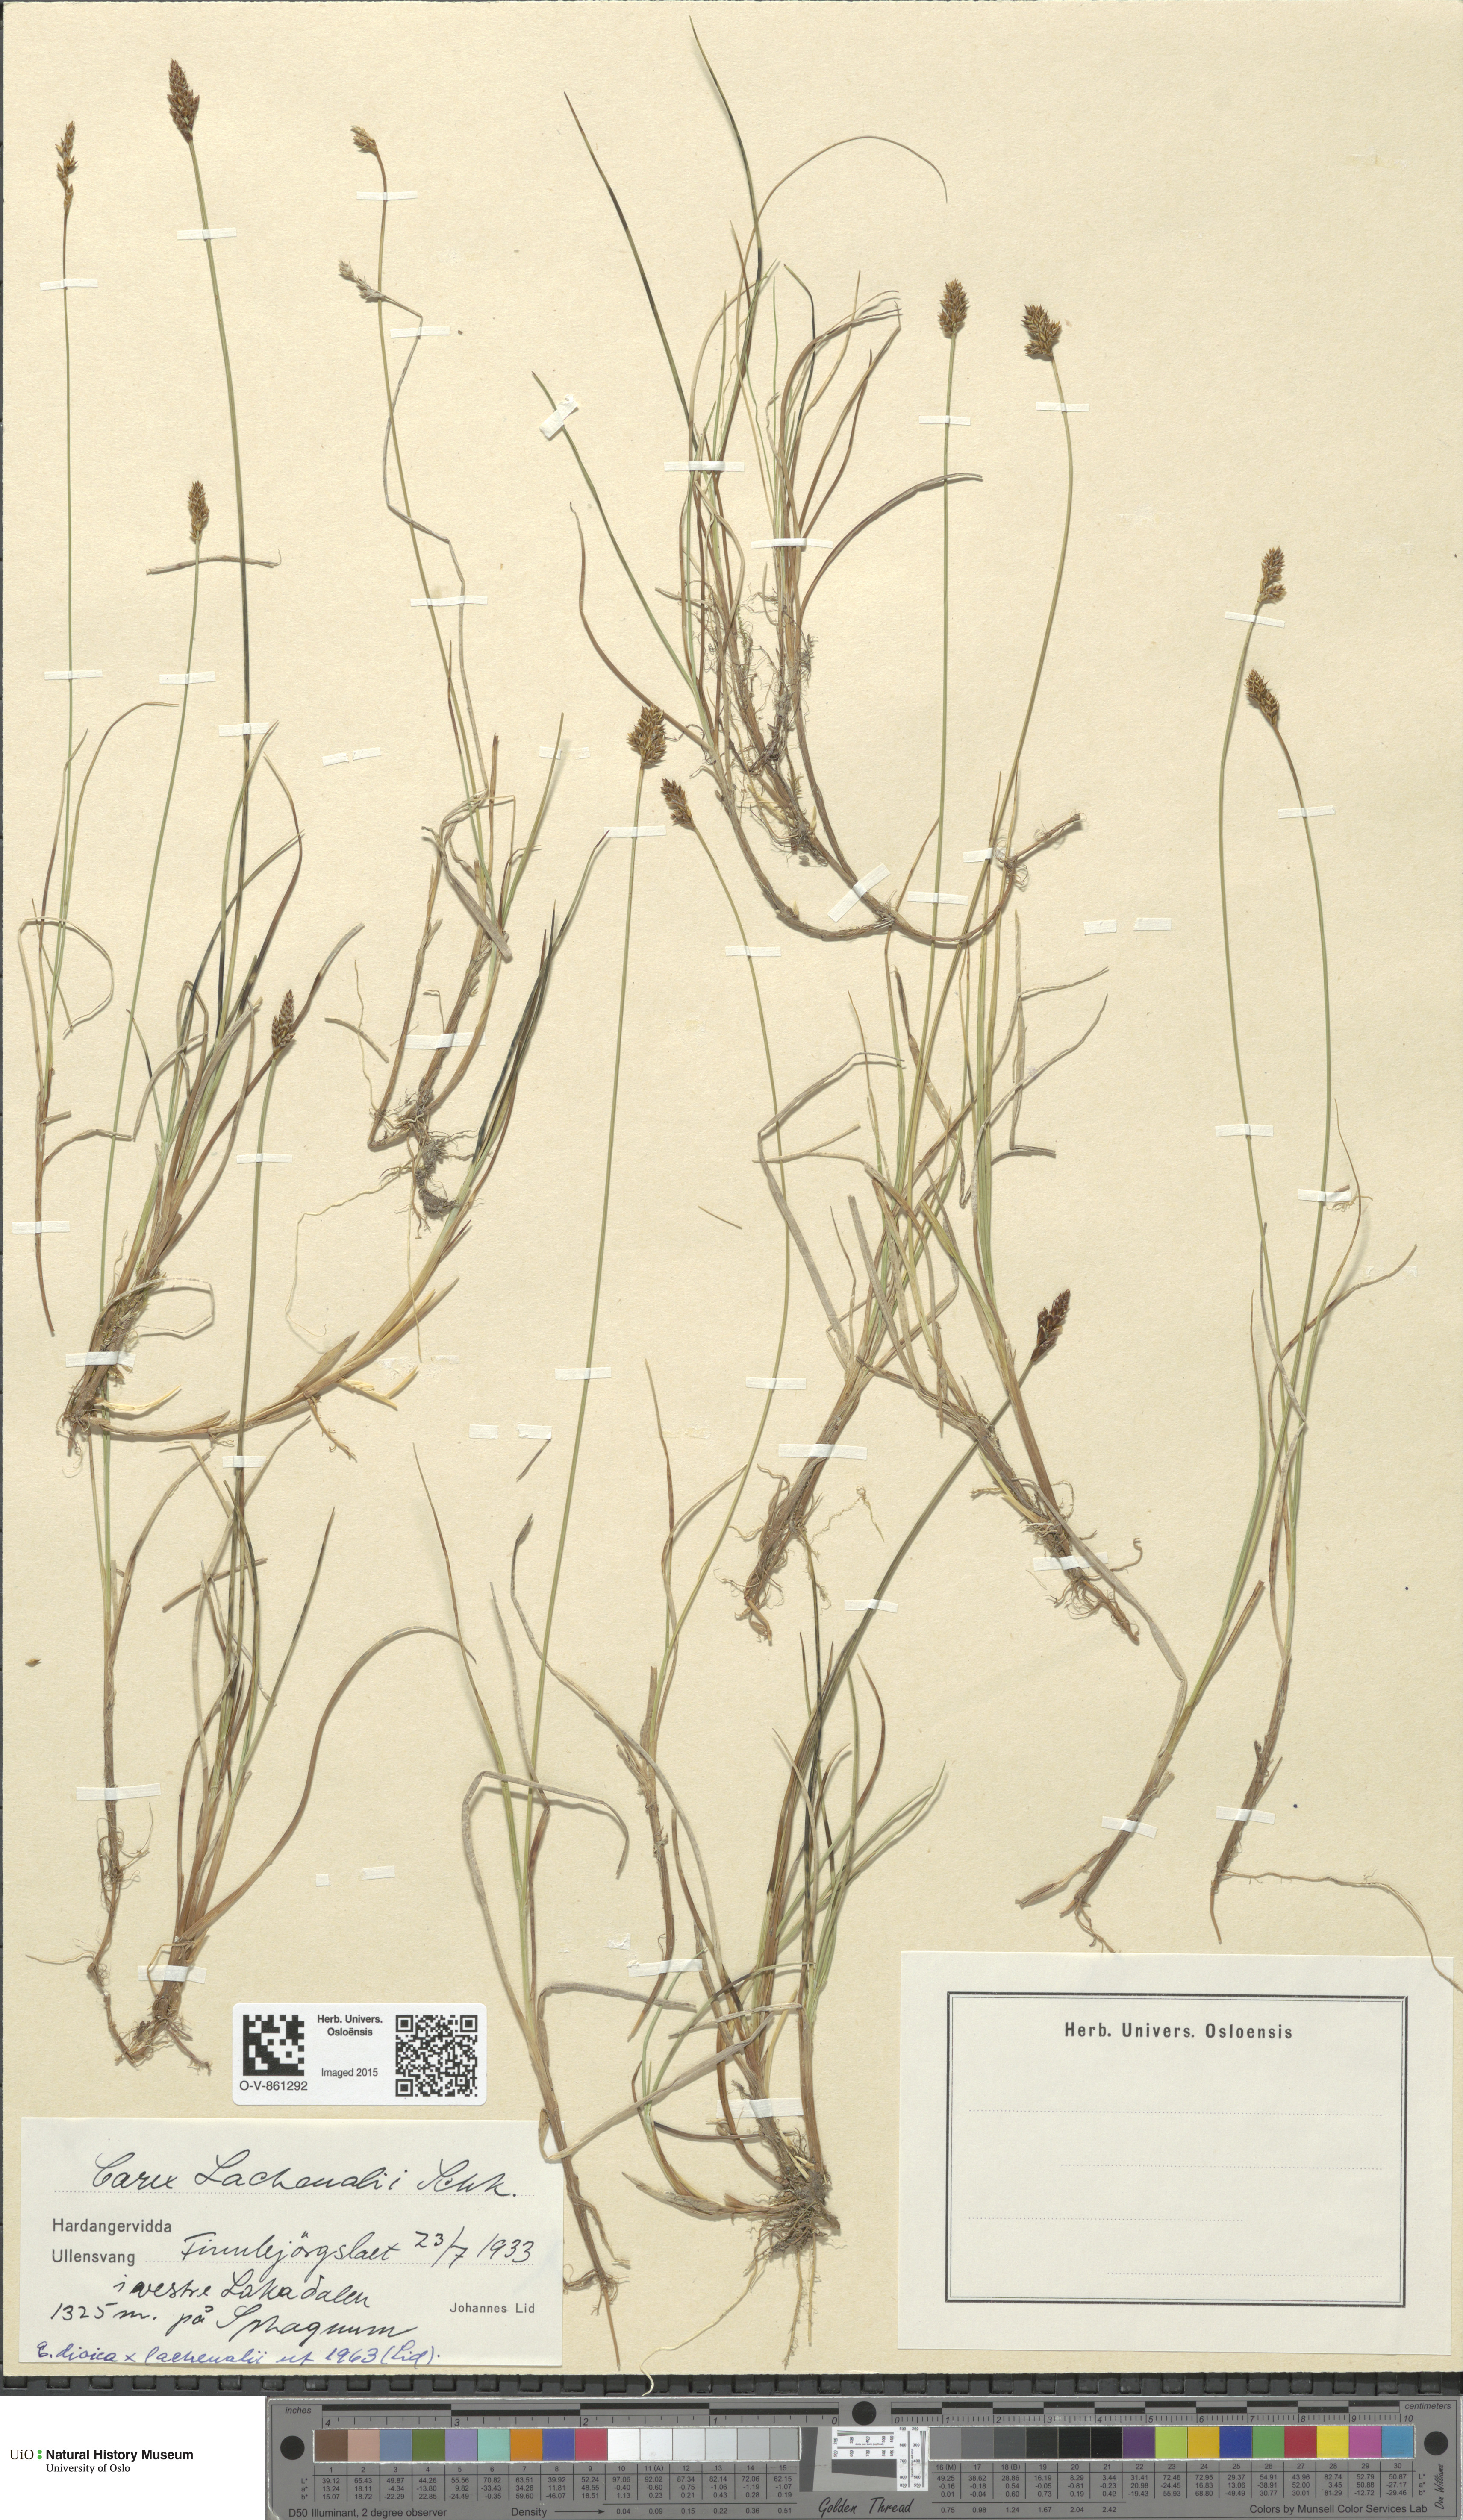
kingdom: Plantae
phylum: Tracheophyta
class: Liliopsida
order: Poales
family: Cyperaceae
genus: Carex
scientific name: Carex lachenalii
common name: Hare's-foot sedge
